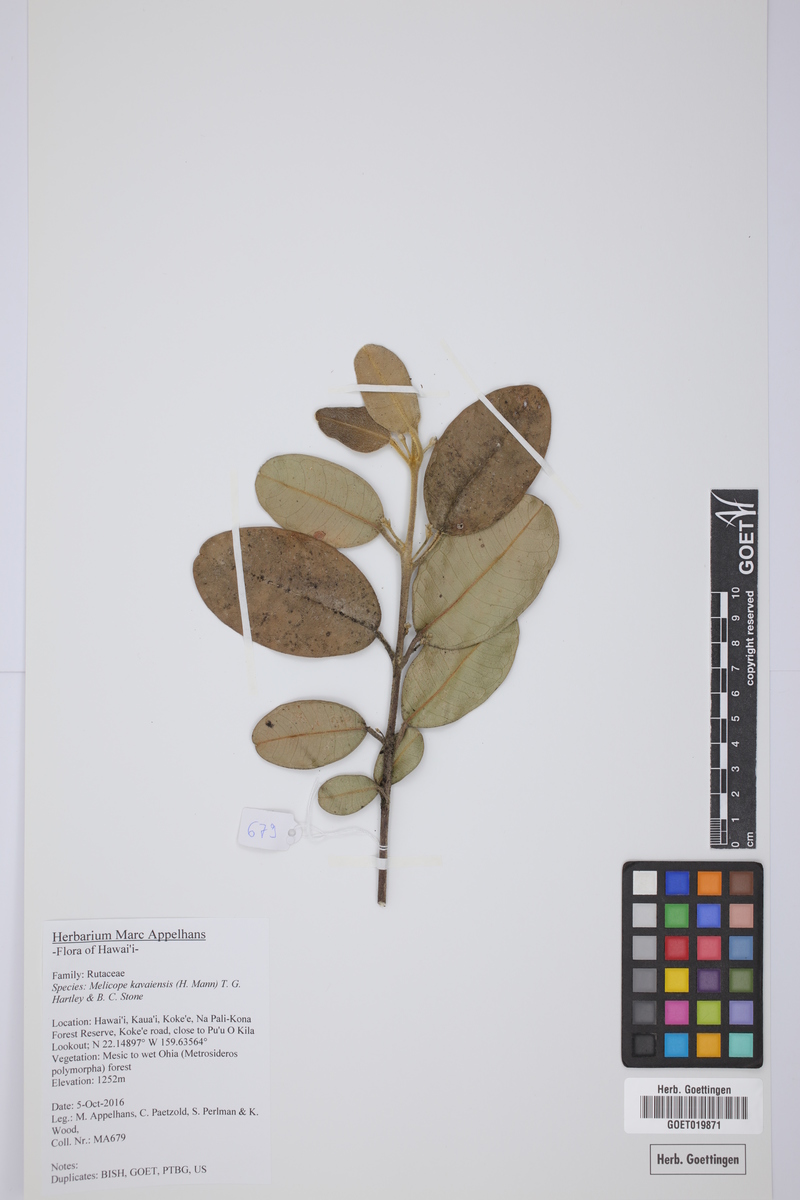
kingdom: Plantae
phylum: Tracheophyta
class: Magnoliopsida
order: Sapindales
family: Rutaceae
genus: Melicope
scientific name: Melicope kavaiensis
